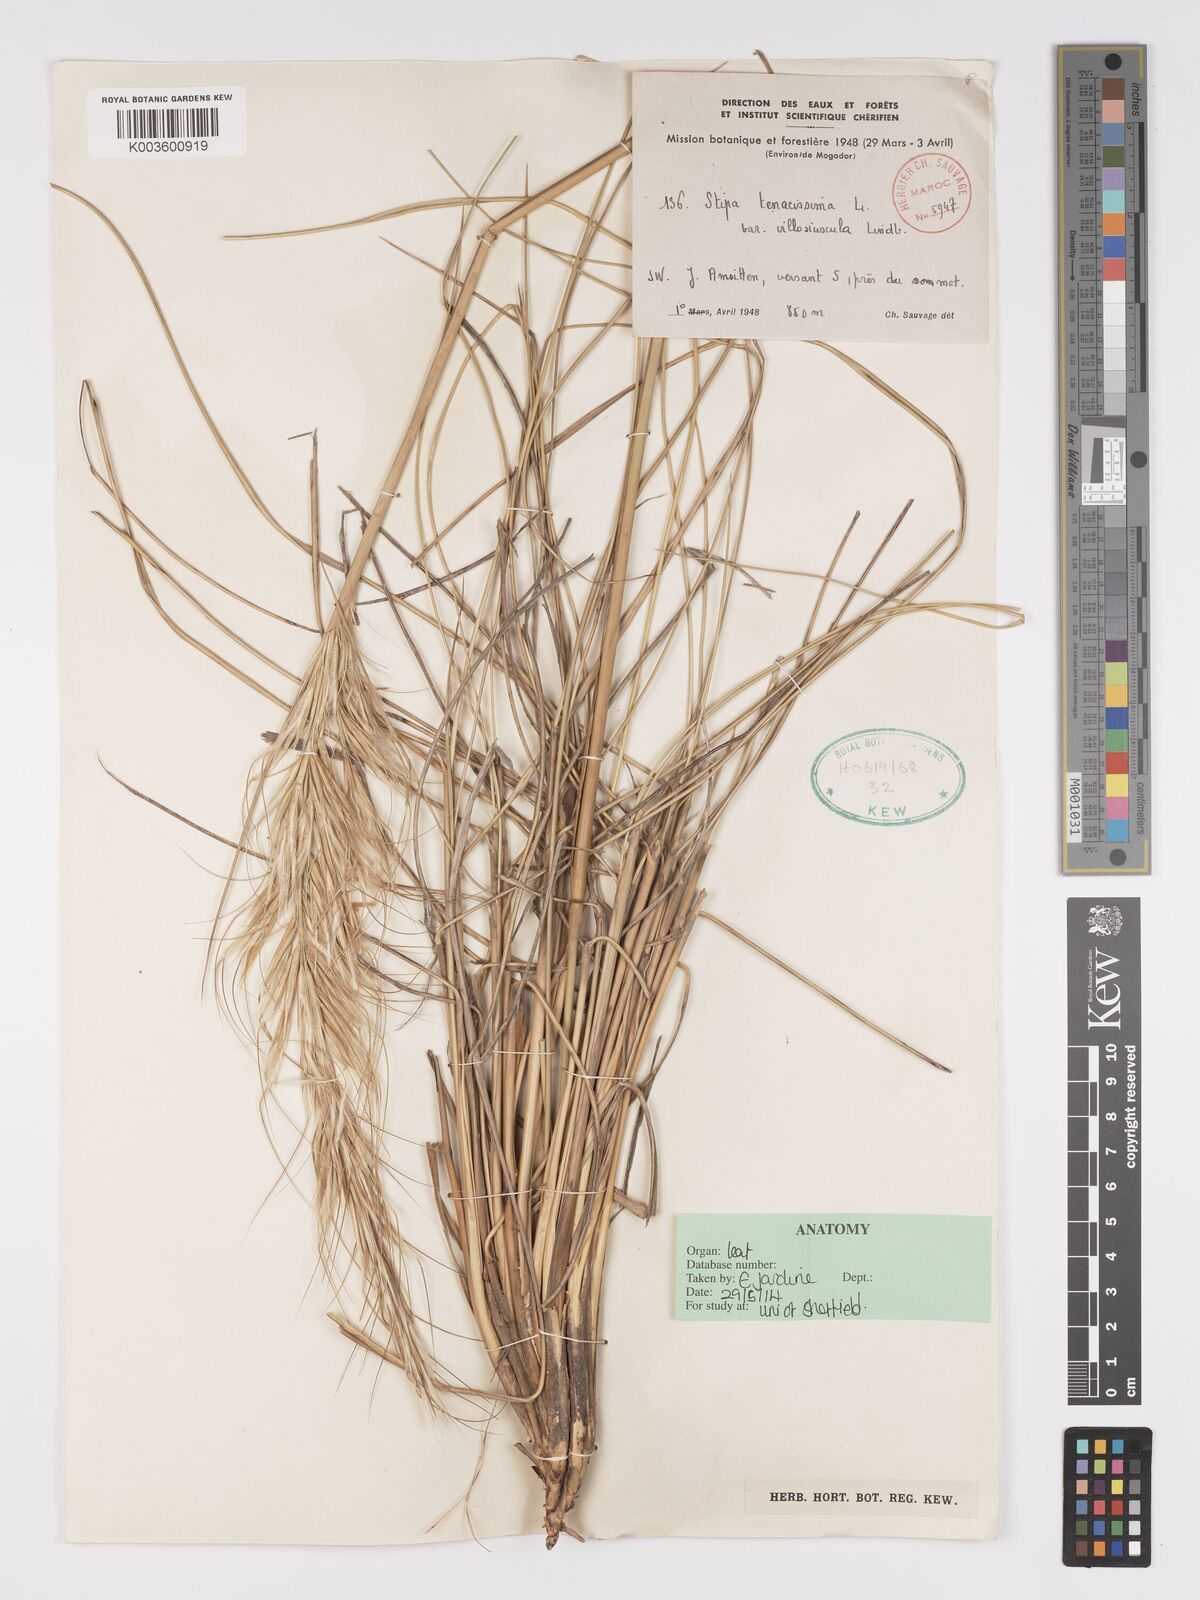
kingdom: Plantae
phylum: Tracheophyta
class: Liliopsida
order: Poales
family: Poaceae
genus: Macrochloa
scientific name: Macrochloa tenacissima
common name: Alfa grass
